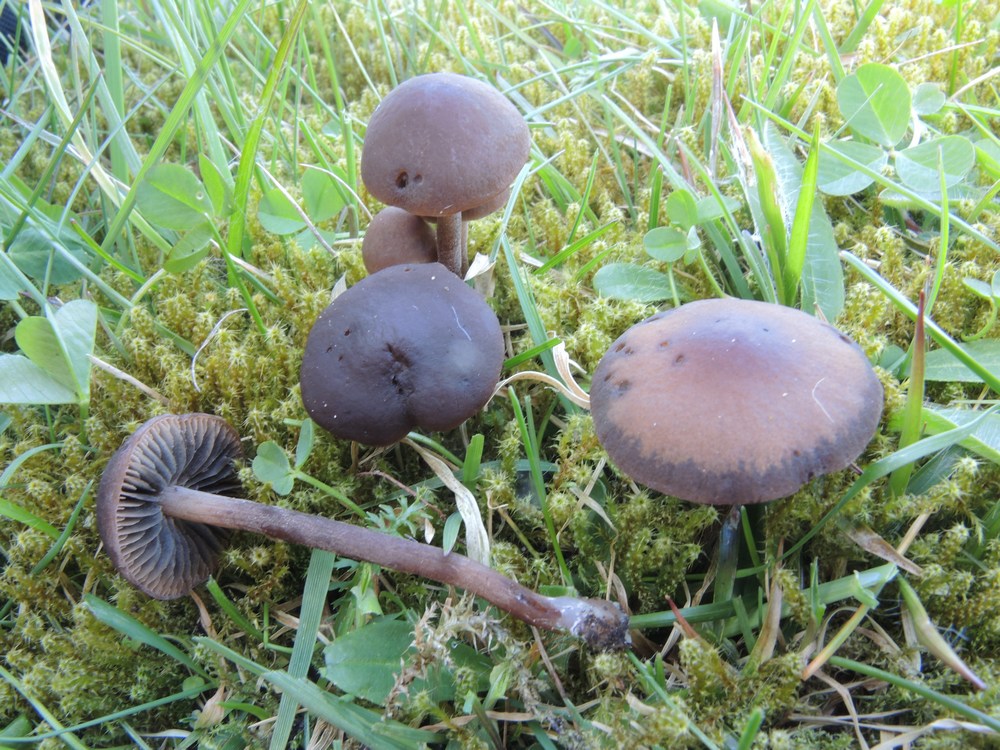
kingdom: Fungi
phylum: Basidiomycota
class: Agaricomycetes
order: Agaricales
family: Bolbitiaceae
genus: Panaeolus
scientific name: Panaeolus fimicola
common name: tidlig glanshat
